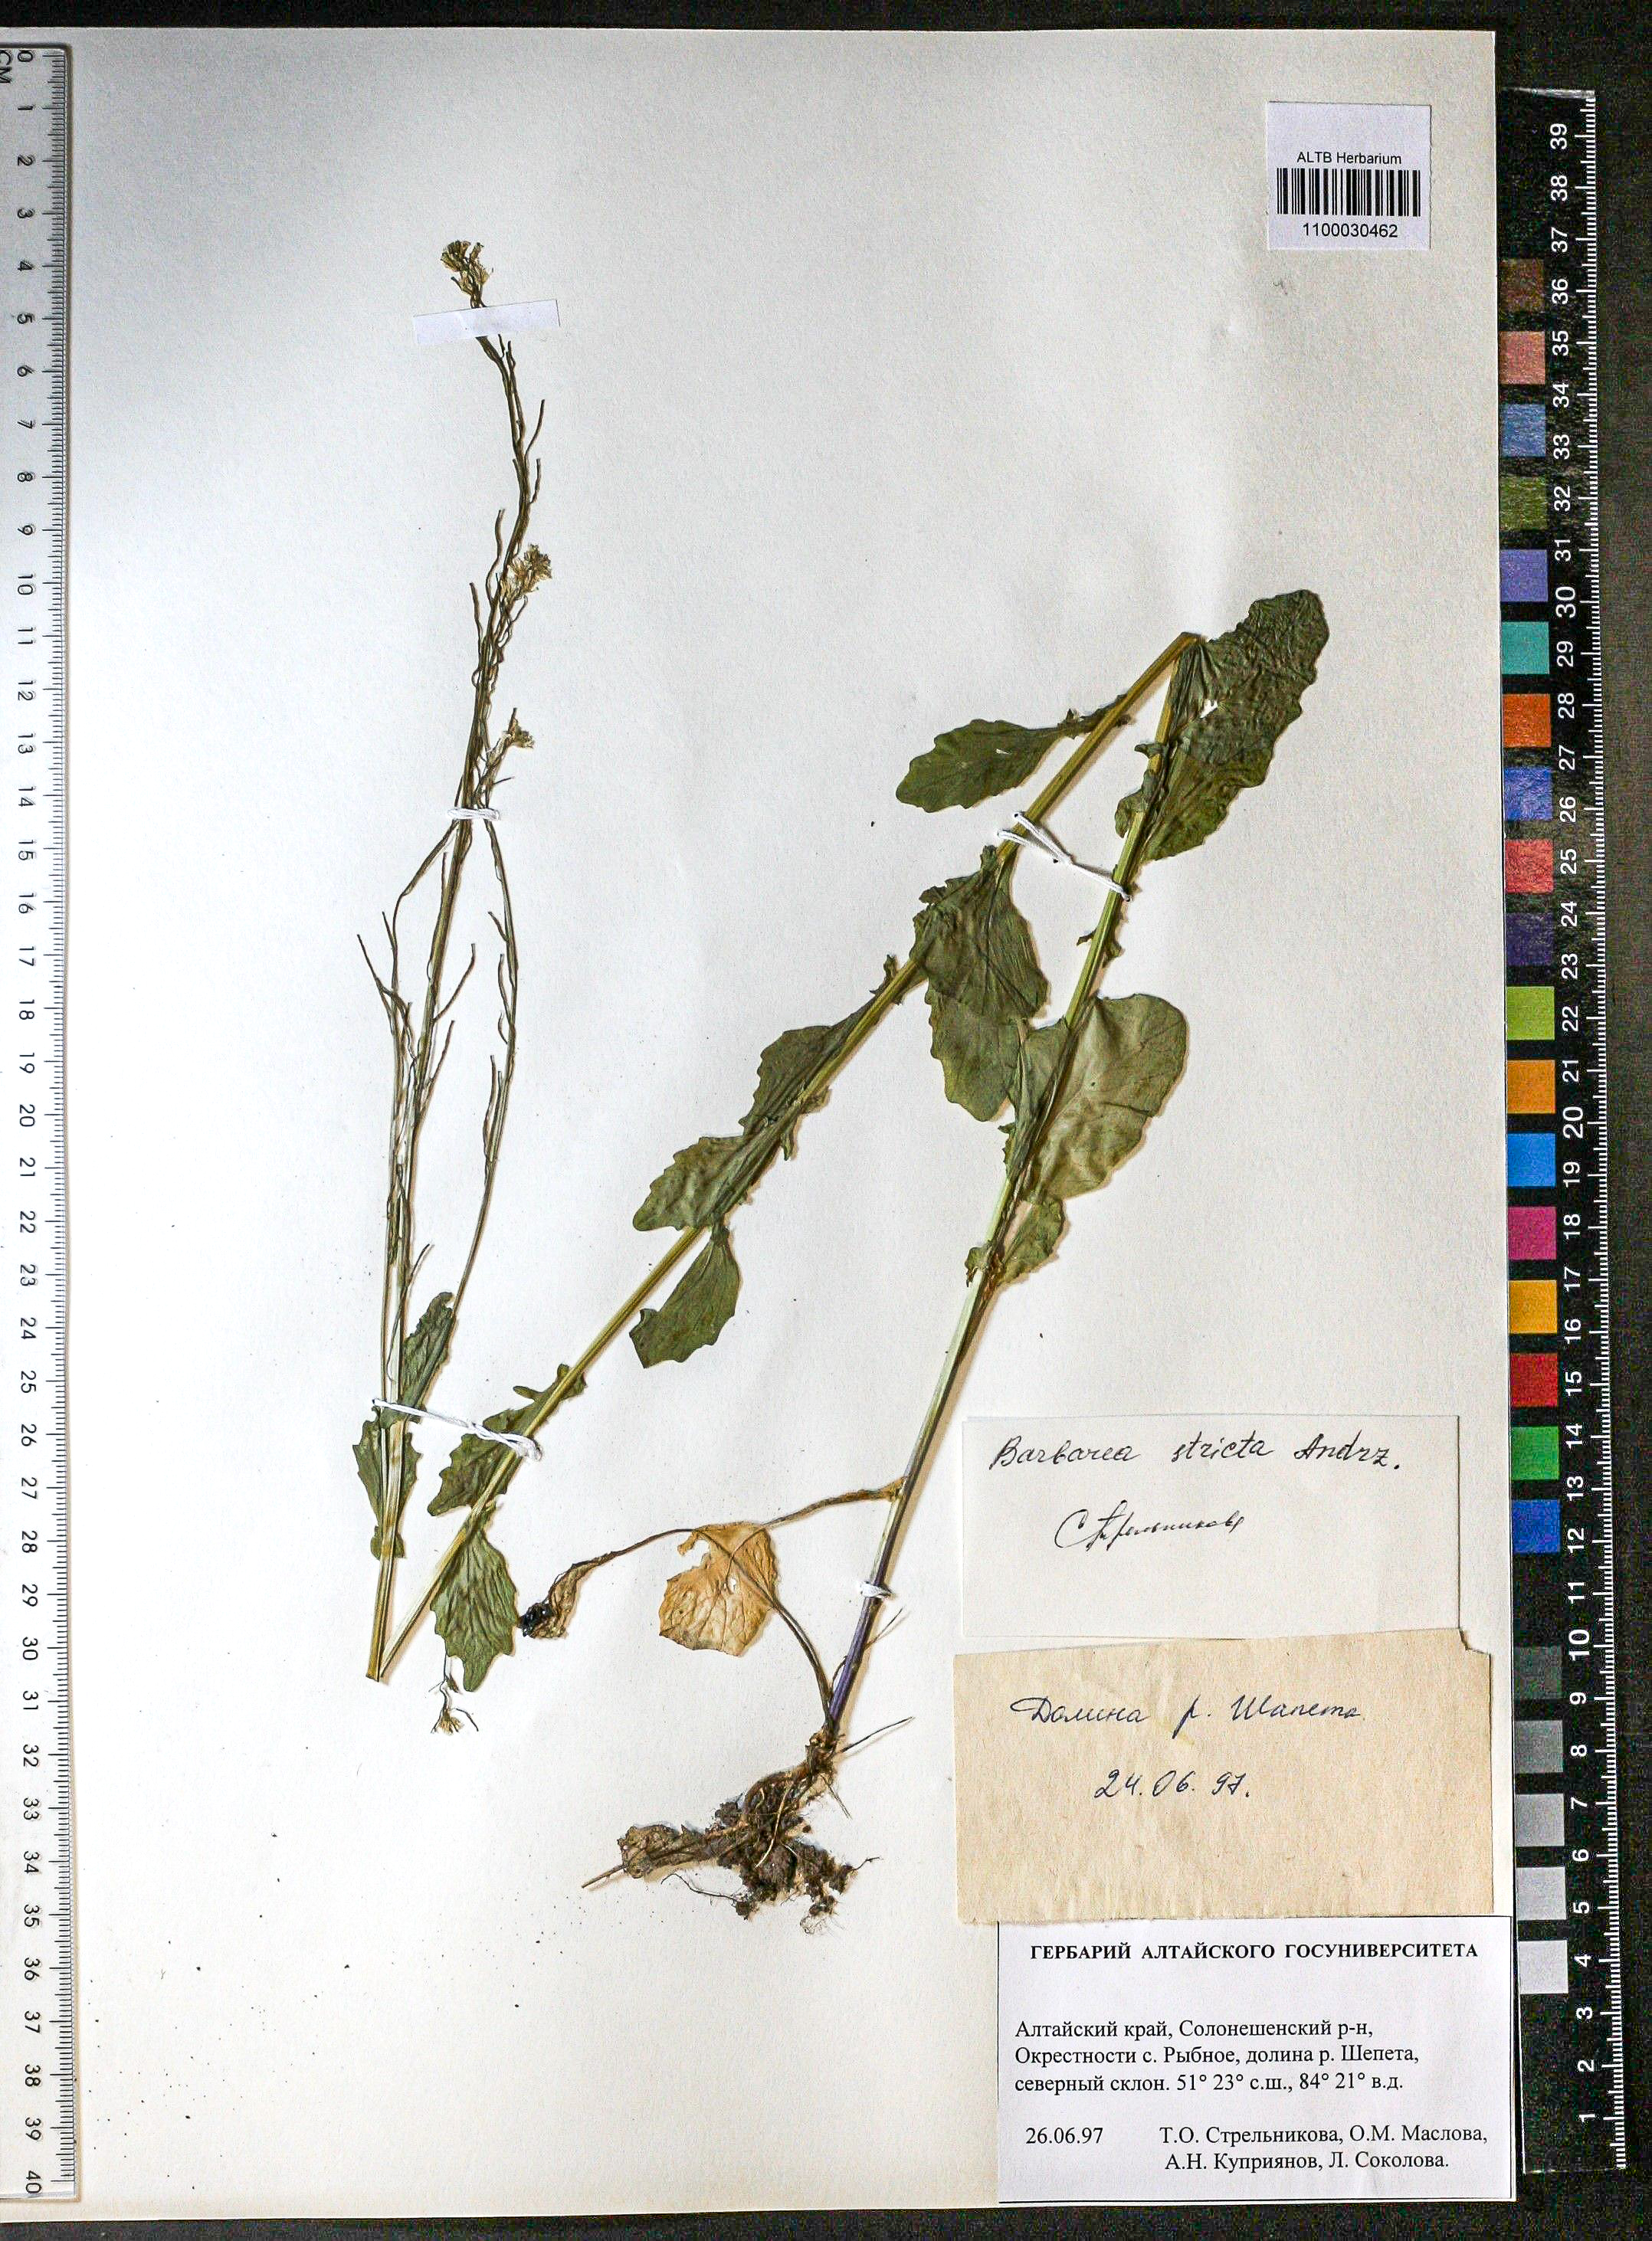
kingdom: Plantae
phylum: Tracheophyta
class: Magnoliopsida
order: Brassicales
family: Brassicaceae
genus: Barbarea
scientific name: Barbarea vulgaris
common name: Cressy-greens
